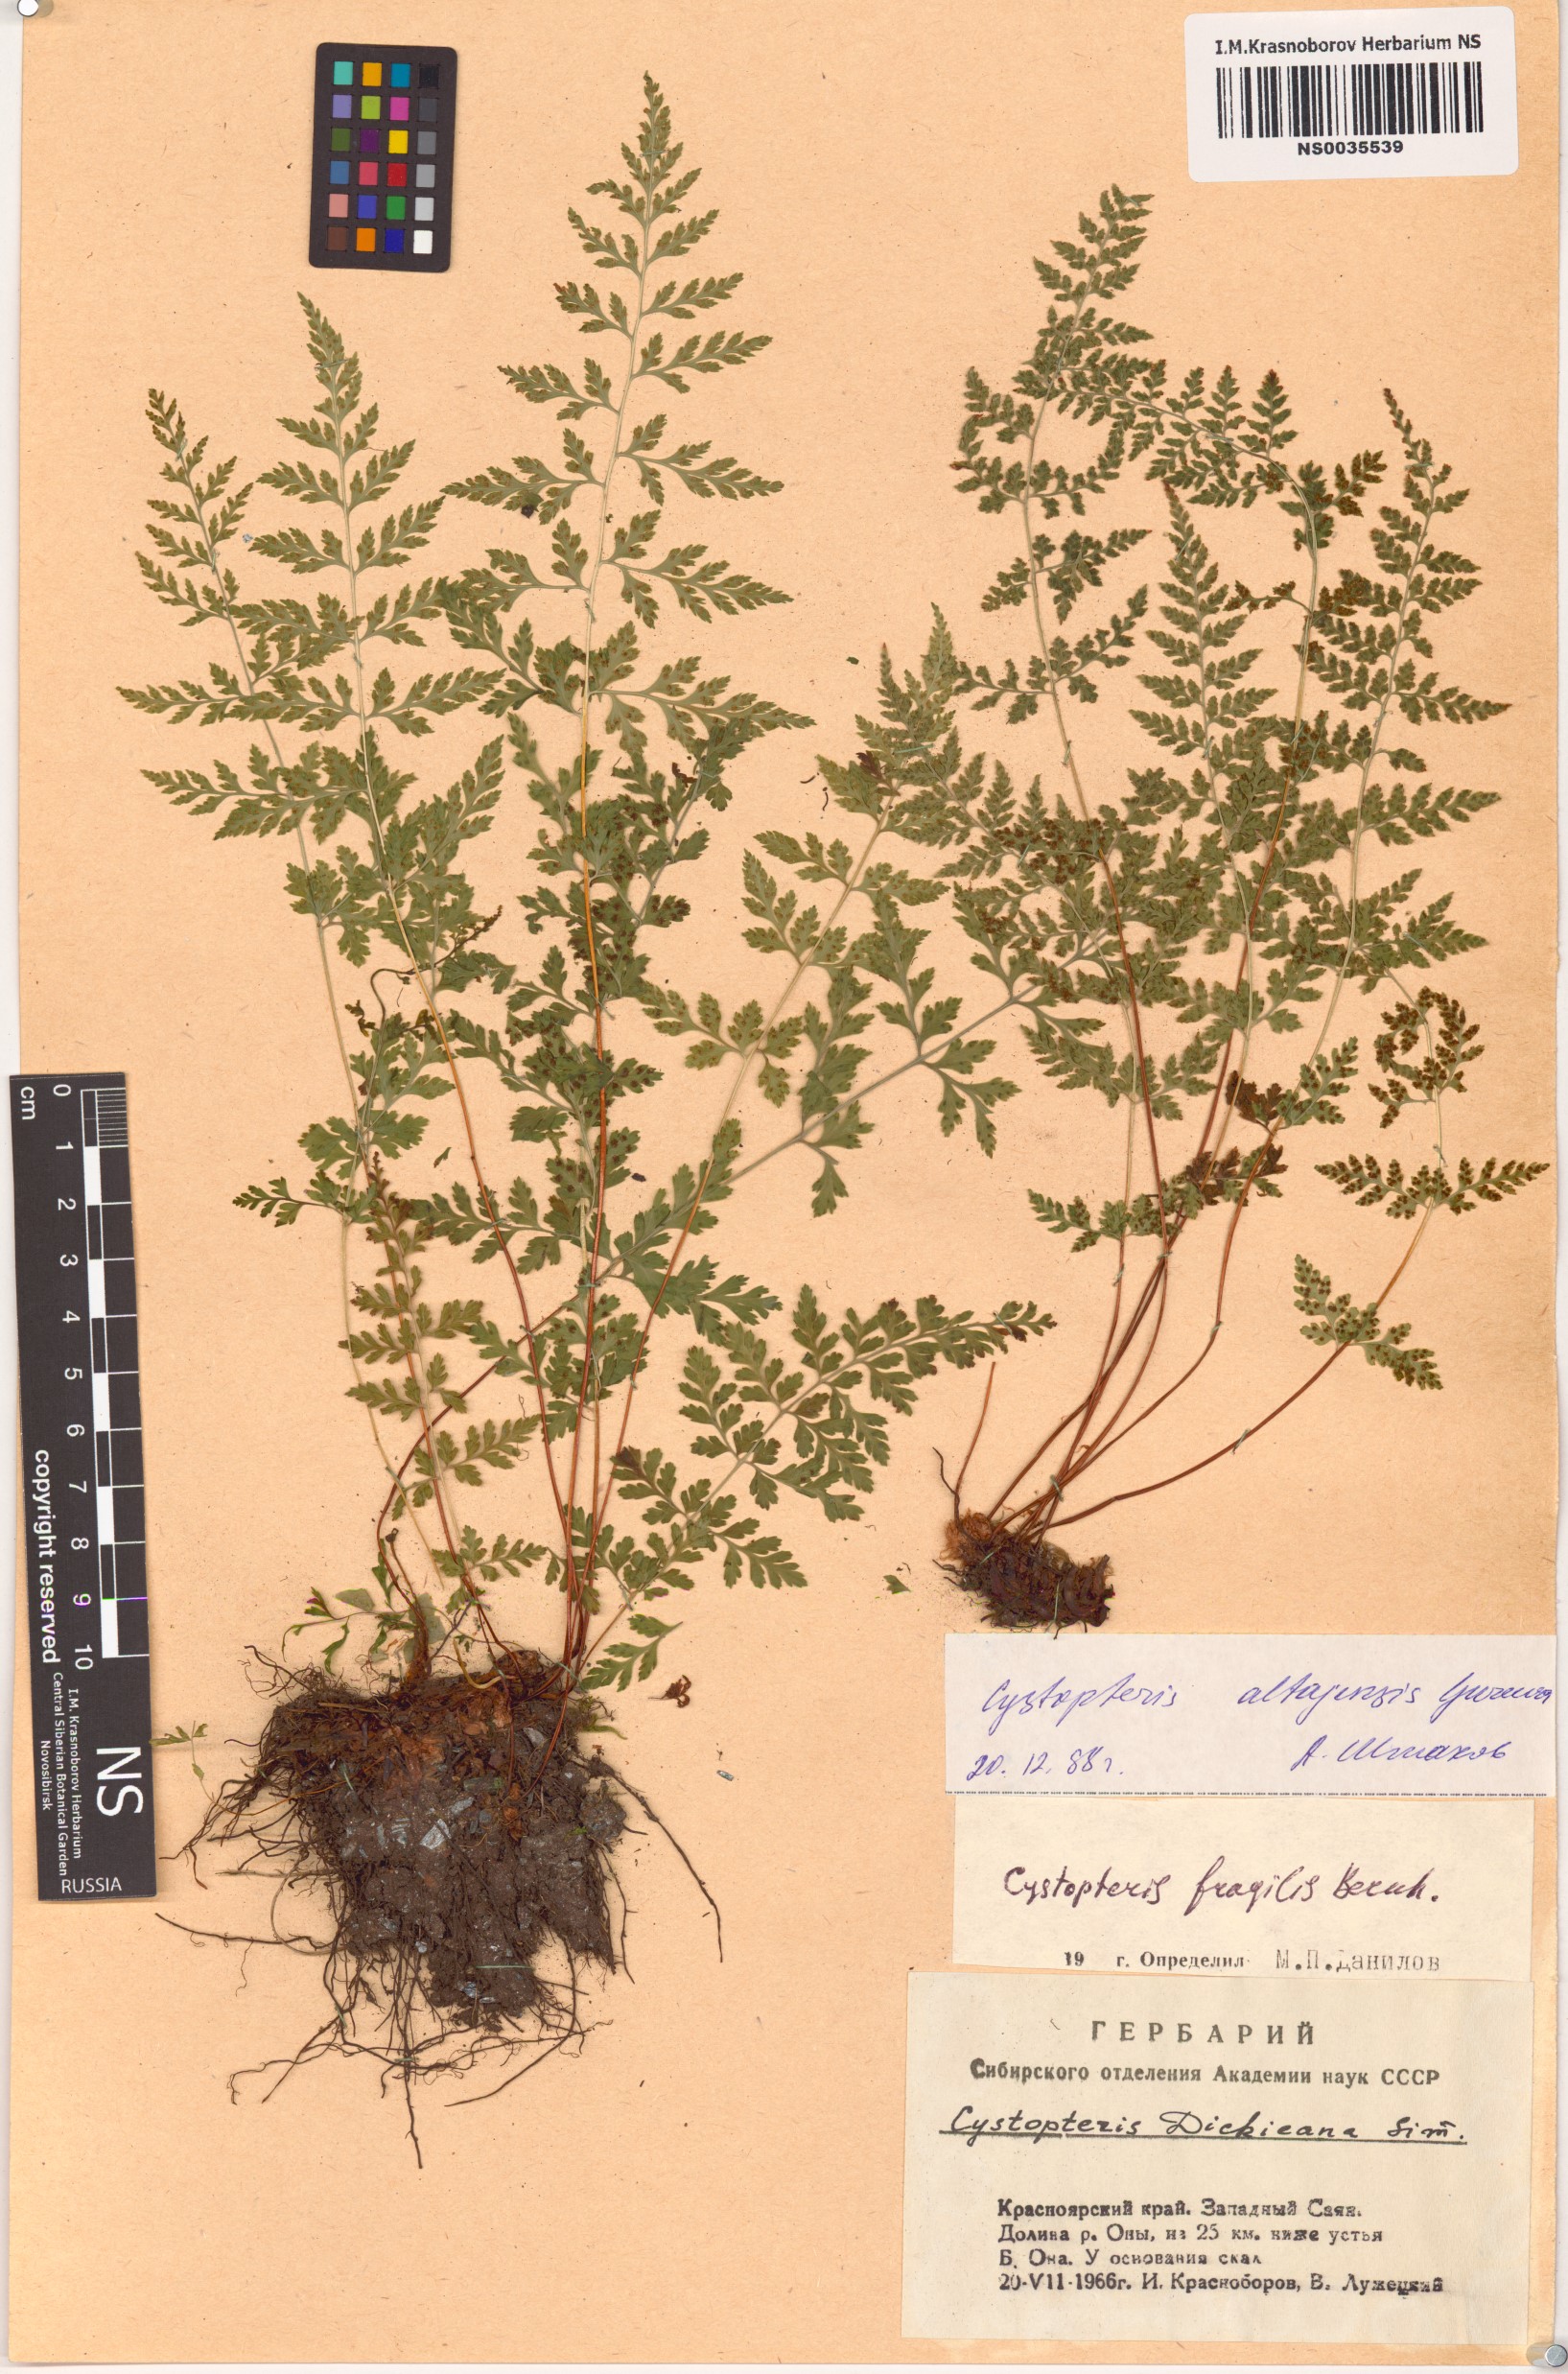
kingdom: Plantae
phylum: Tracheophyta
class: Polypodiopsida
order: Polypodiales
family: Cystopteridaceae
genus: Cystopteris
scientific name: Cystopteris diaphana
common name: Greenish bladder-fern
